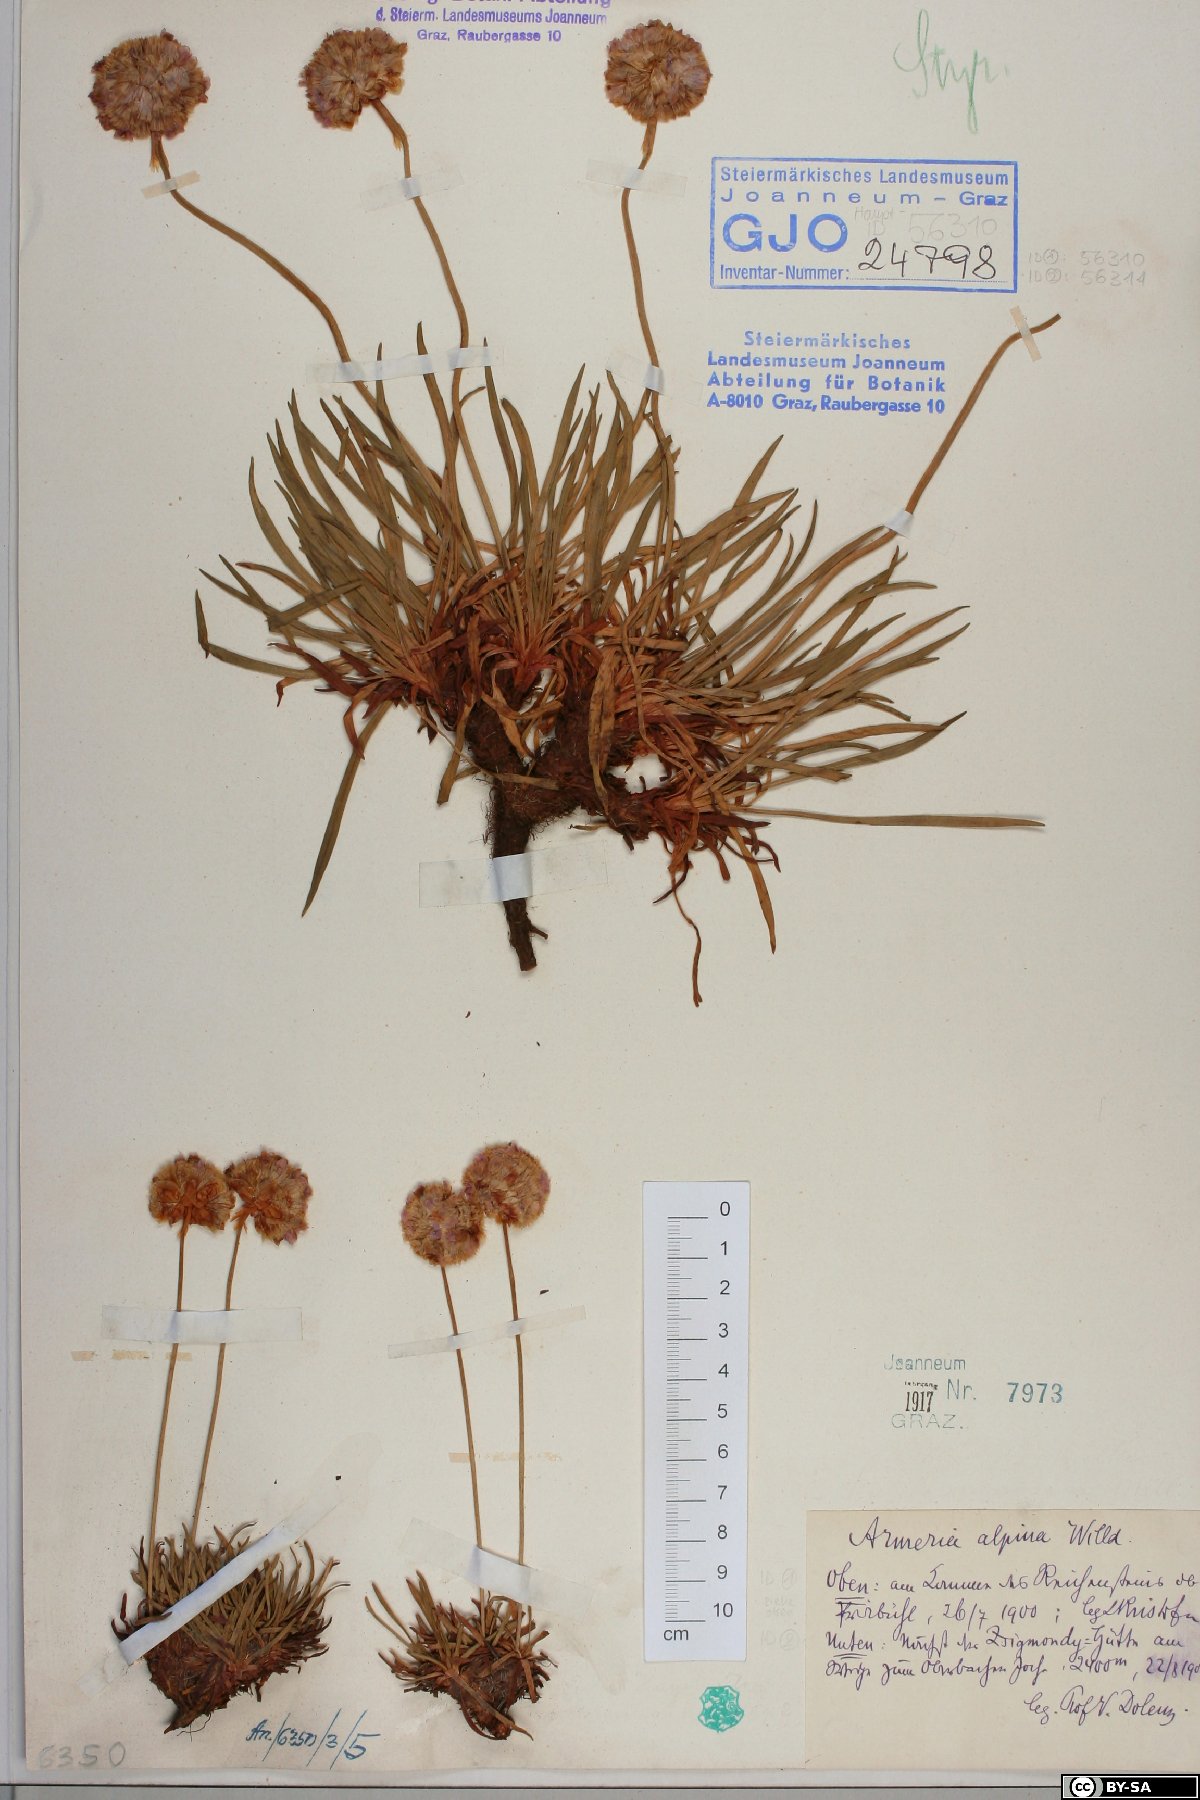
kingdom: Plantae
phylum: Tracheophyta
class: Magnoliopsida
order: Caryophyllales
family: Plumbaginaceae
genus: Armeria
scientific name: Armeria alpina
